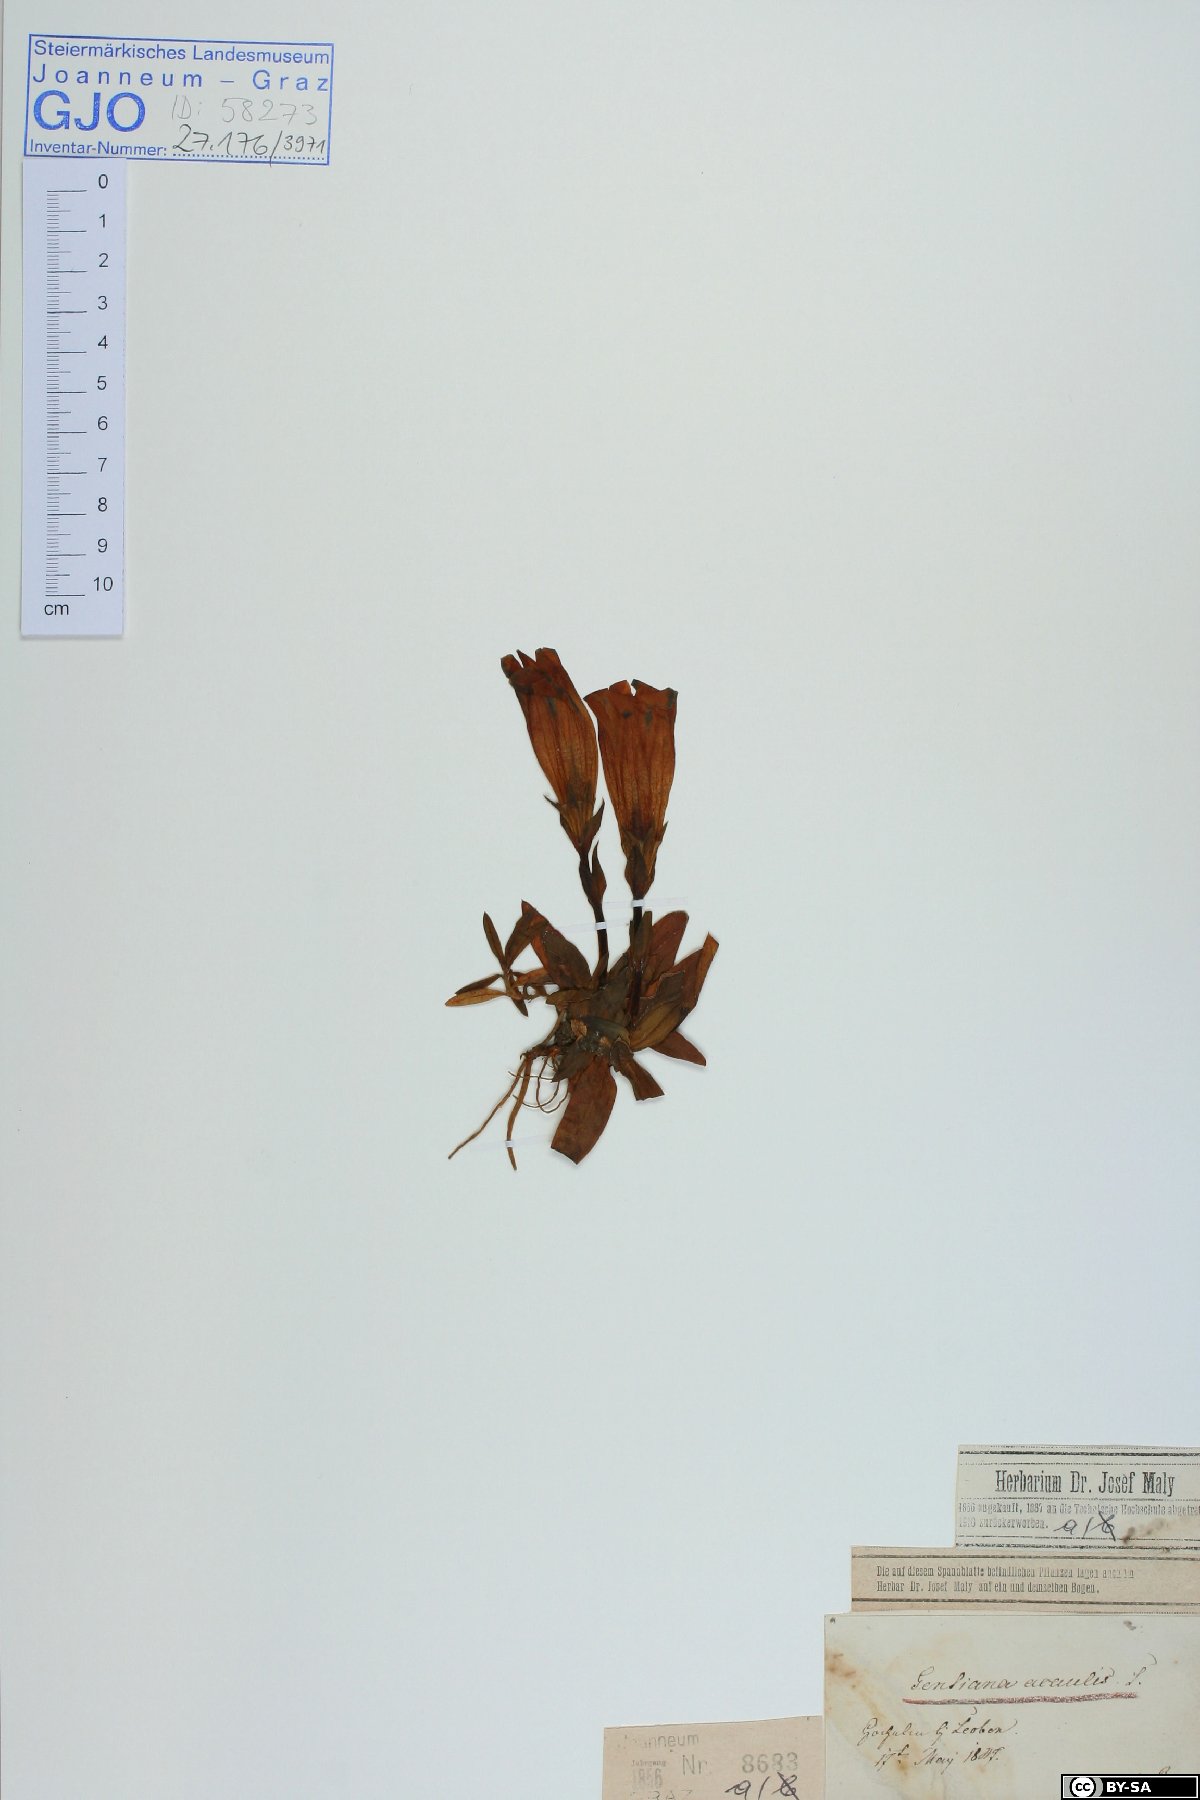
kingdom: Plantae
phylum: Tracheophyta
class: Magnoliopsida
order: Gentianales
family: Gentianaceae
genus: Gentiana
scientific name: Gentiana acaulis
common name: Trumpet gentian
